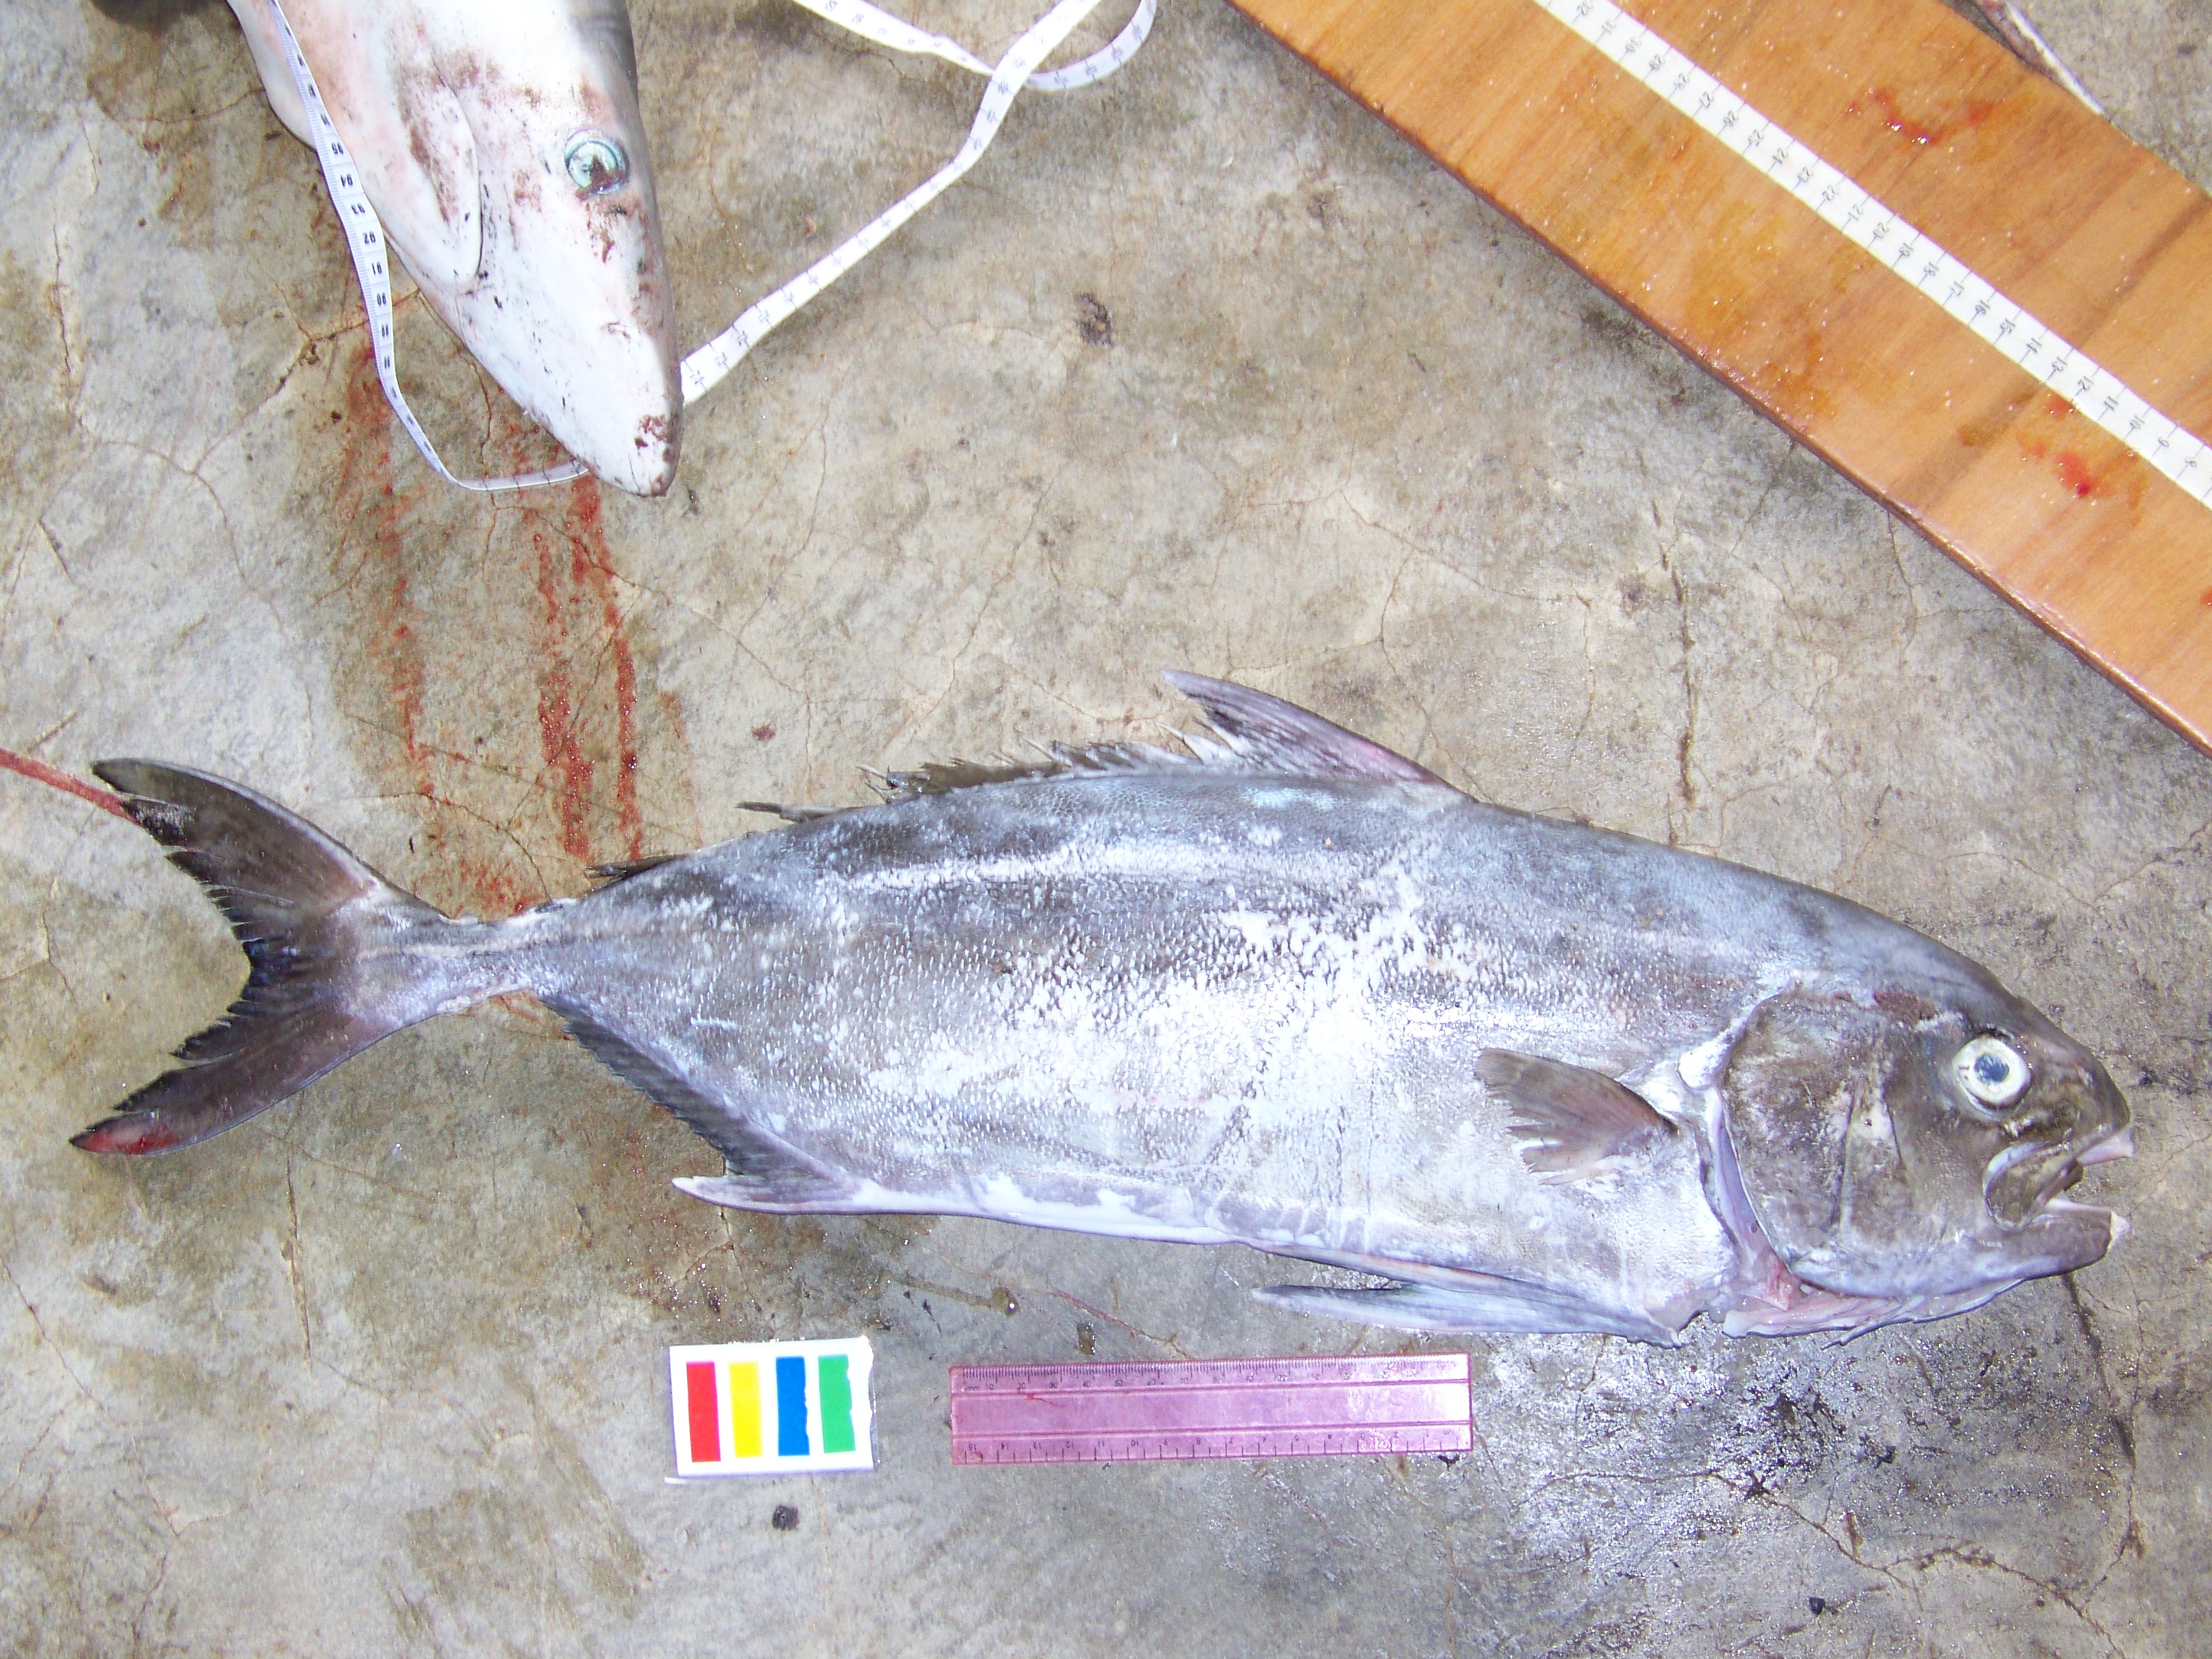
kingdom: Animalia
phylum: Chordata
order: Perciformes
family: Carangidae
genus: Seriolina
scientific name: Seriolina nigrofasciata
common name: Blackbanded trevally
